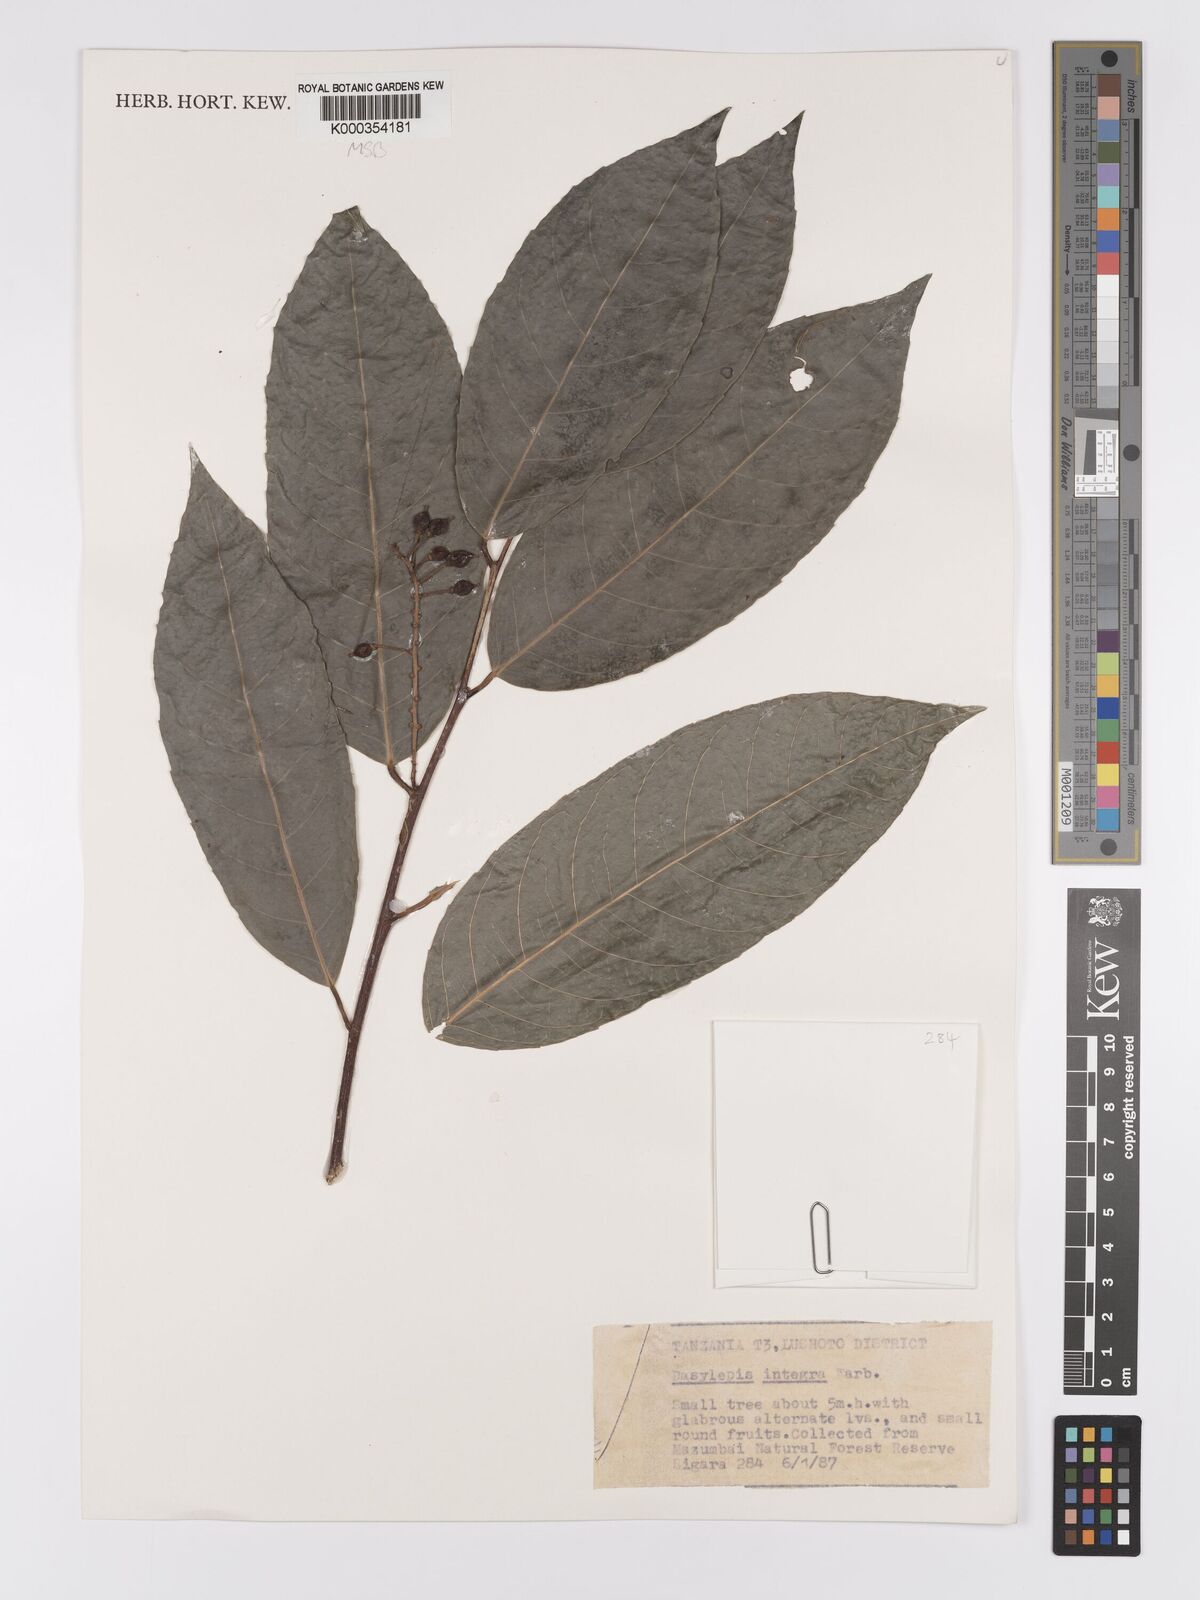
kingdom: Plantae
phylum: Tracheophyta
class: Magnoliopsida
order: Malpighiales
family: Achariaceae
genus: Dasylepis
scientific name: Dasylepis integra
